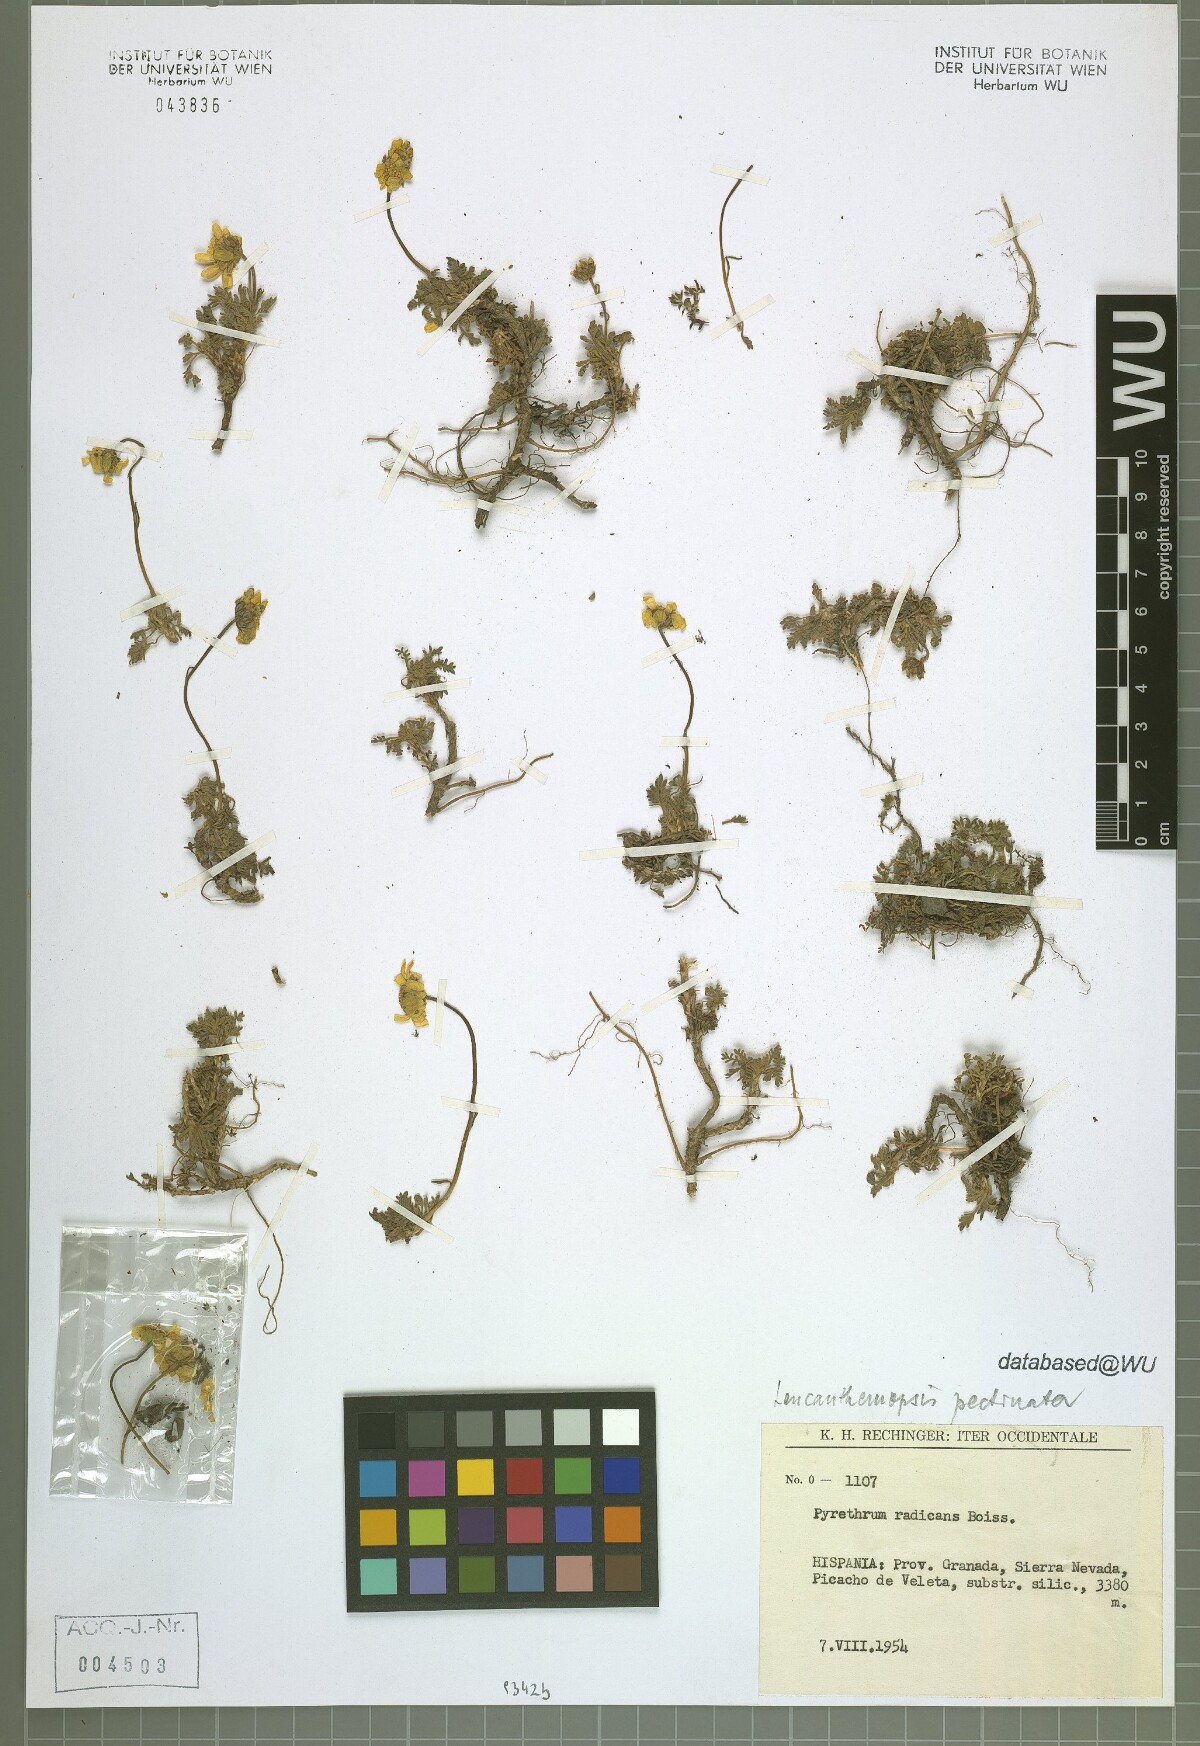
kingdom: Plantae
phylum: Tracheophyta
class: Magnoliopsida
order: Asterales
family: Asteraceae
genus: Leucanthemopsis
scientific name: Leucanthemopsis pectinata
